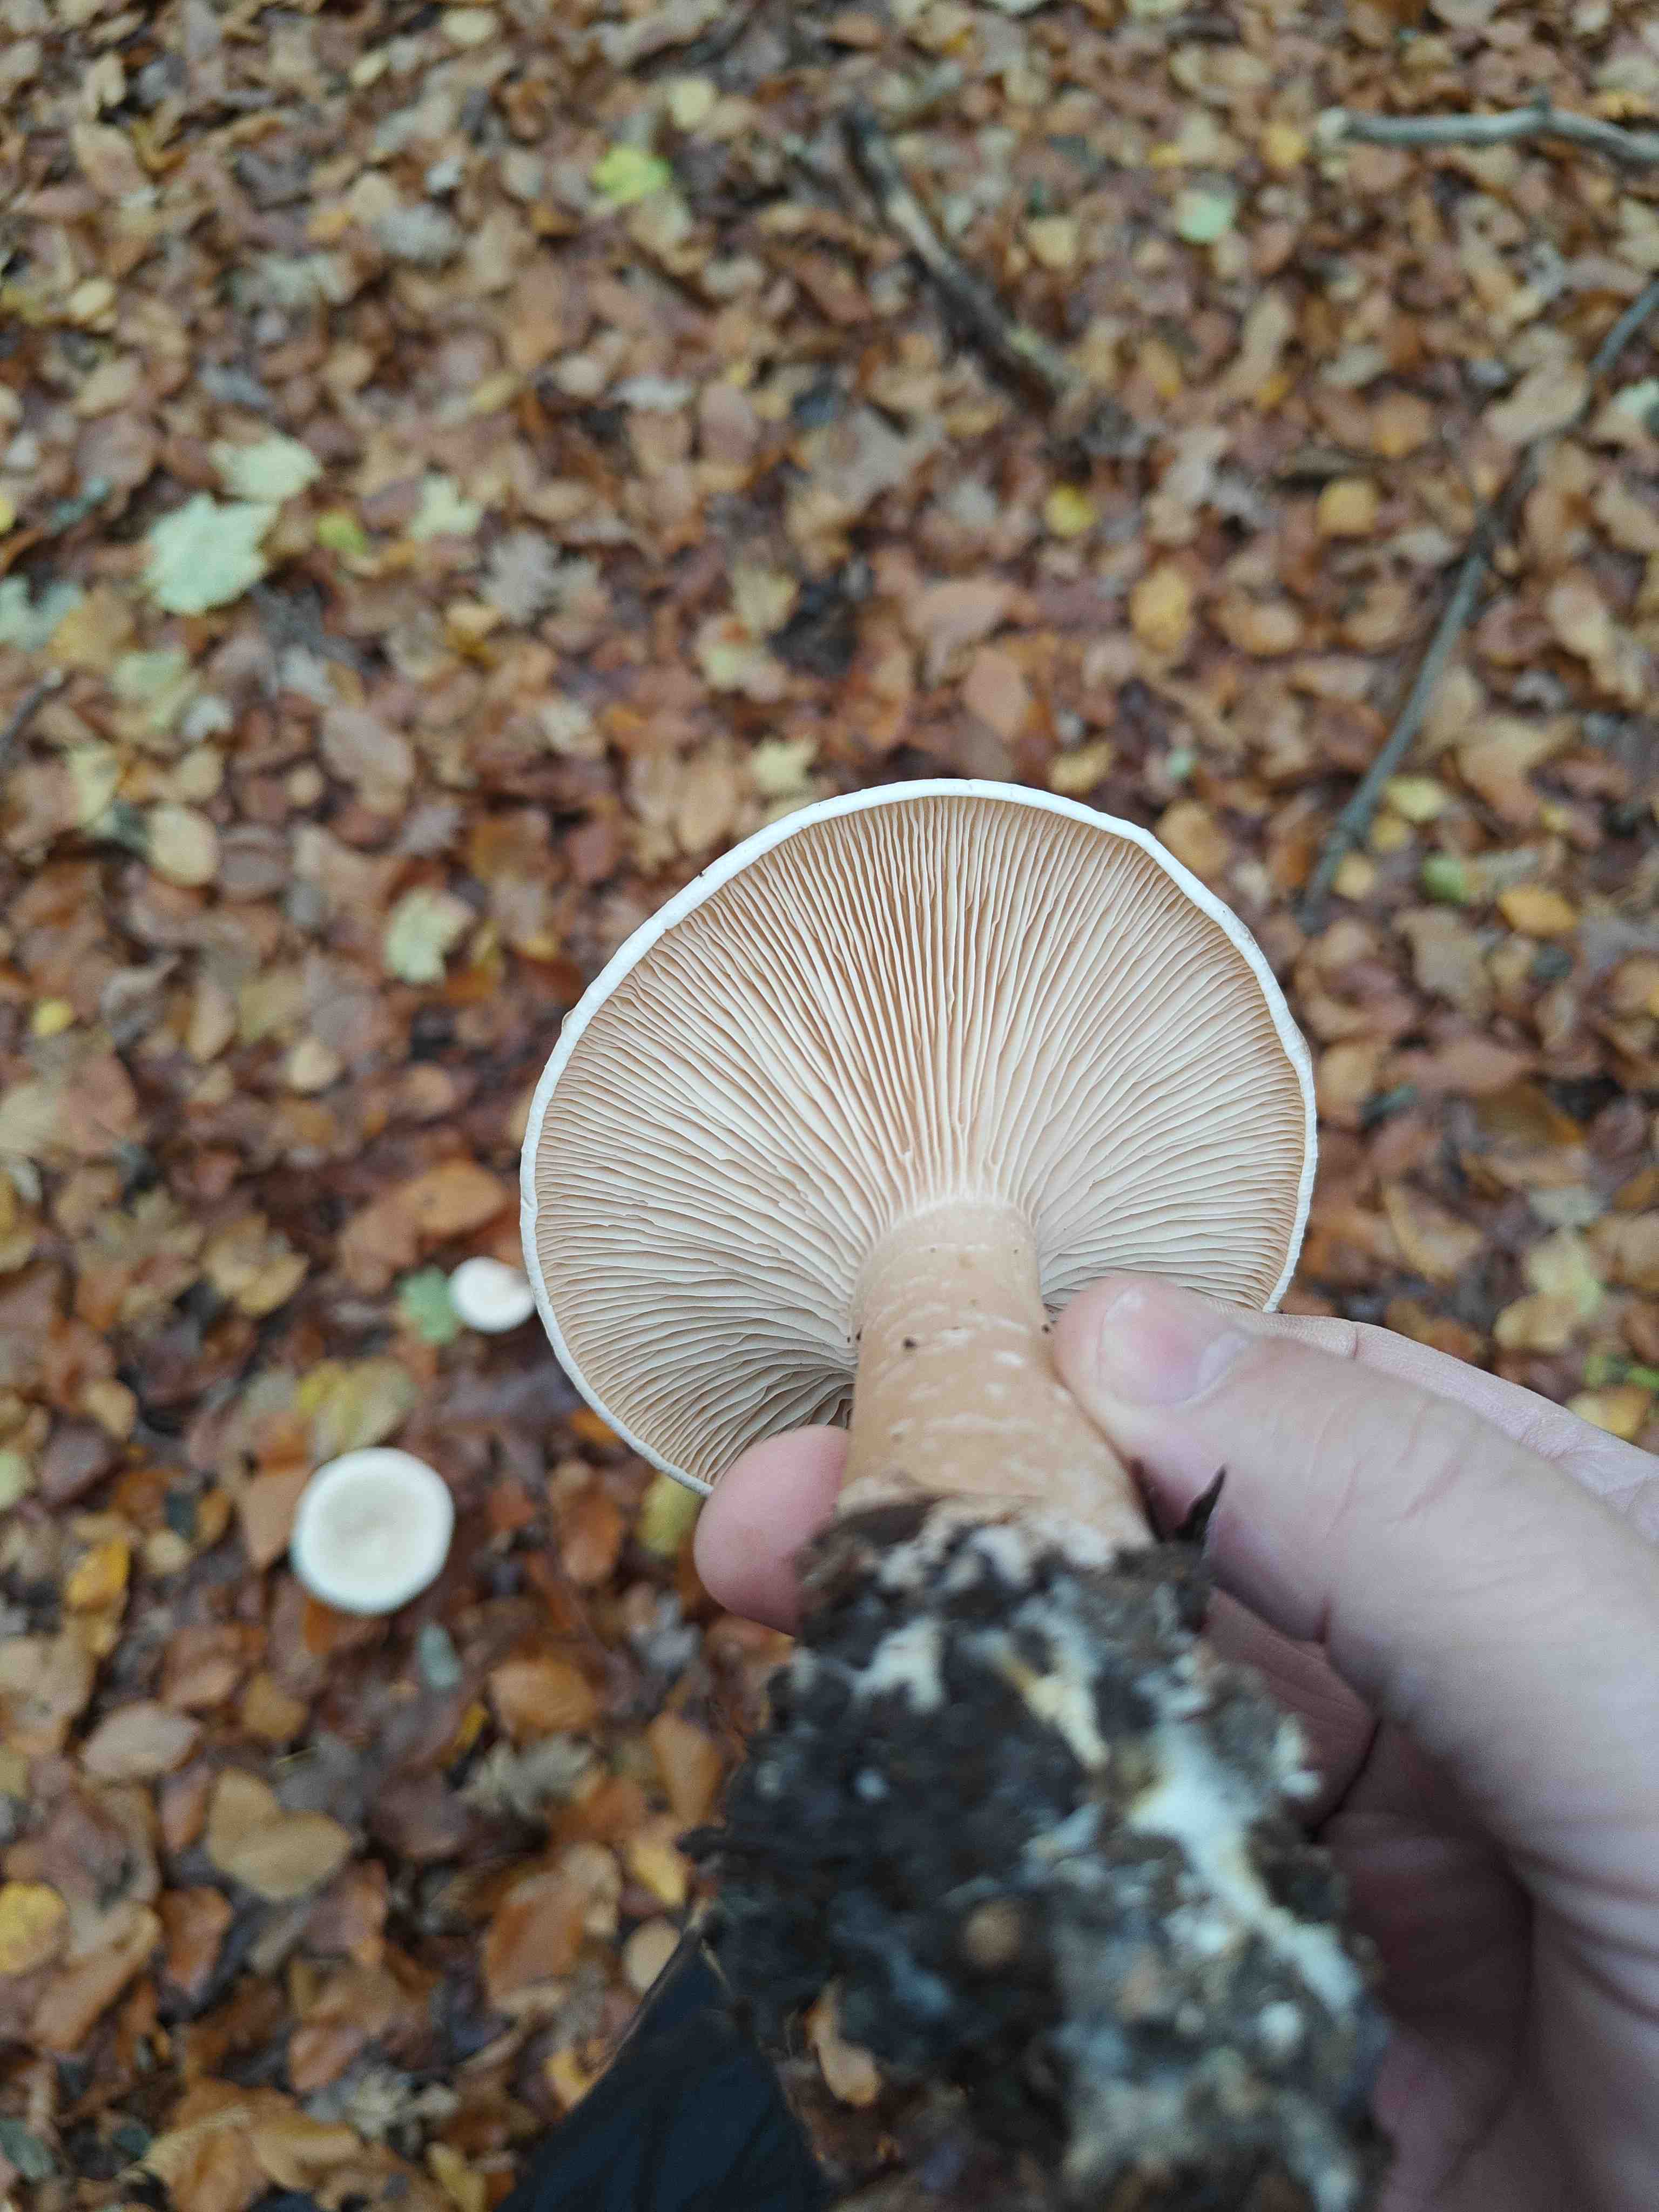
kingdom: Fungi
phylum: Basidiomycota
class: Agaricomycetes
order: Agaricales
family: Tricholomataceae
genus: Infundibulicybe
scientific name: Infundibulicybe geotropa
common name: stor tragthat
